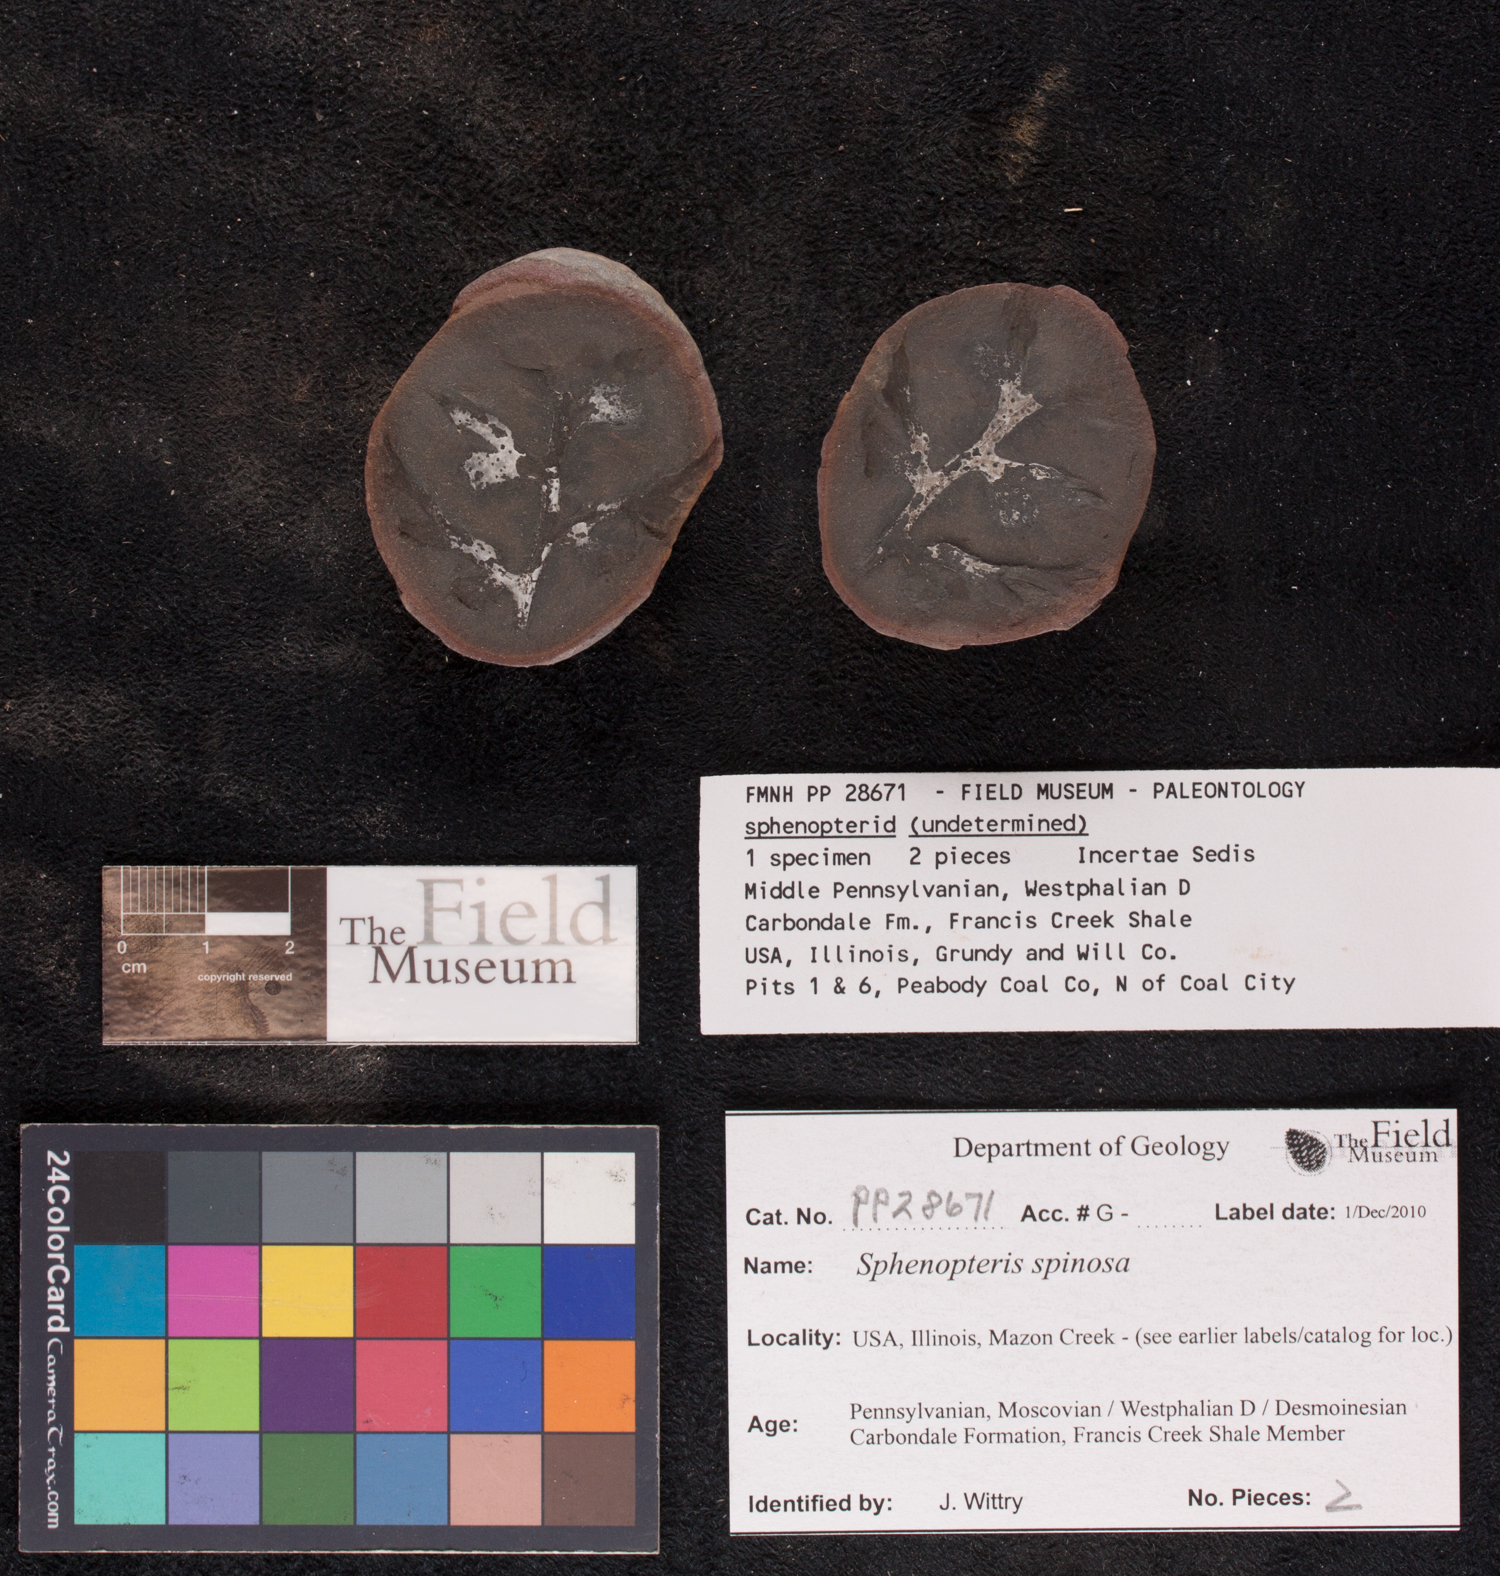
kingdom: Plantae
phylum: Tracheophyta
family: Lyginopteridaceae
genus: Sphenopteris
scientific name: Sphenopteris
